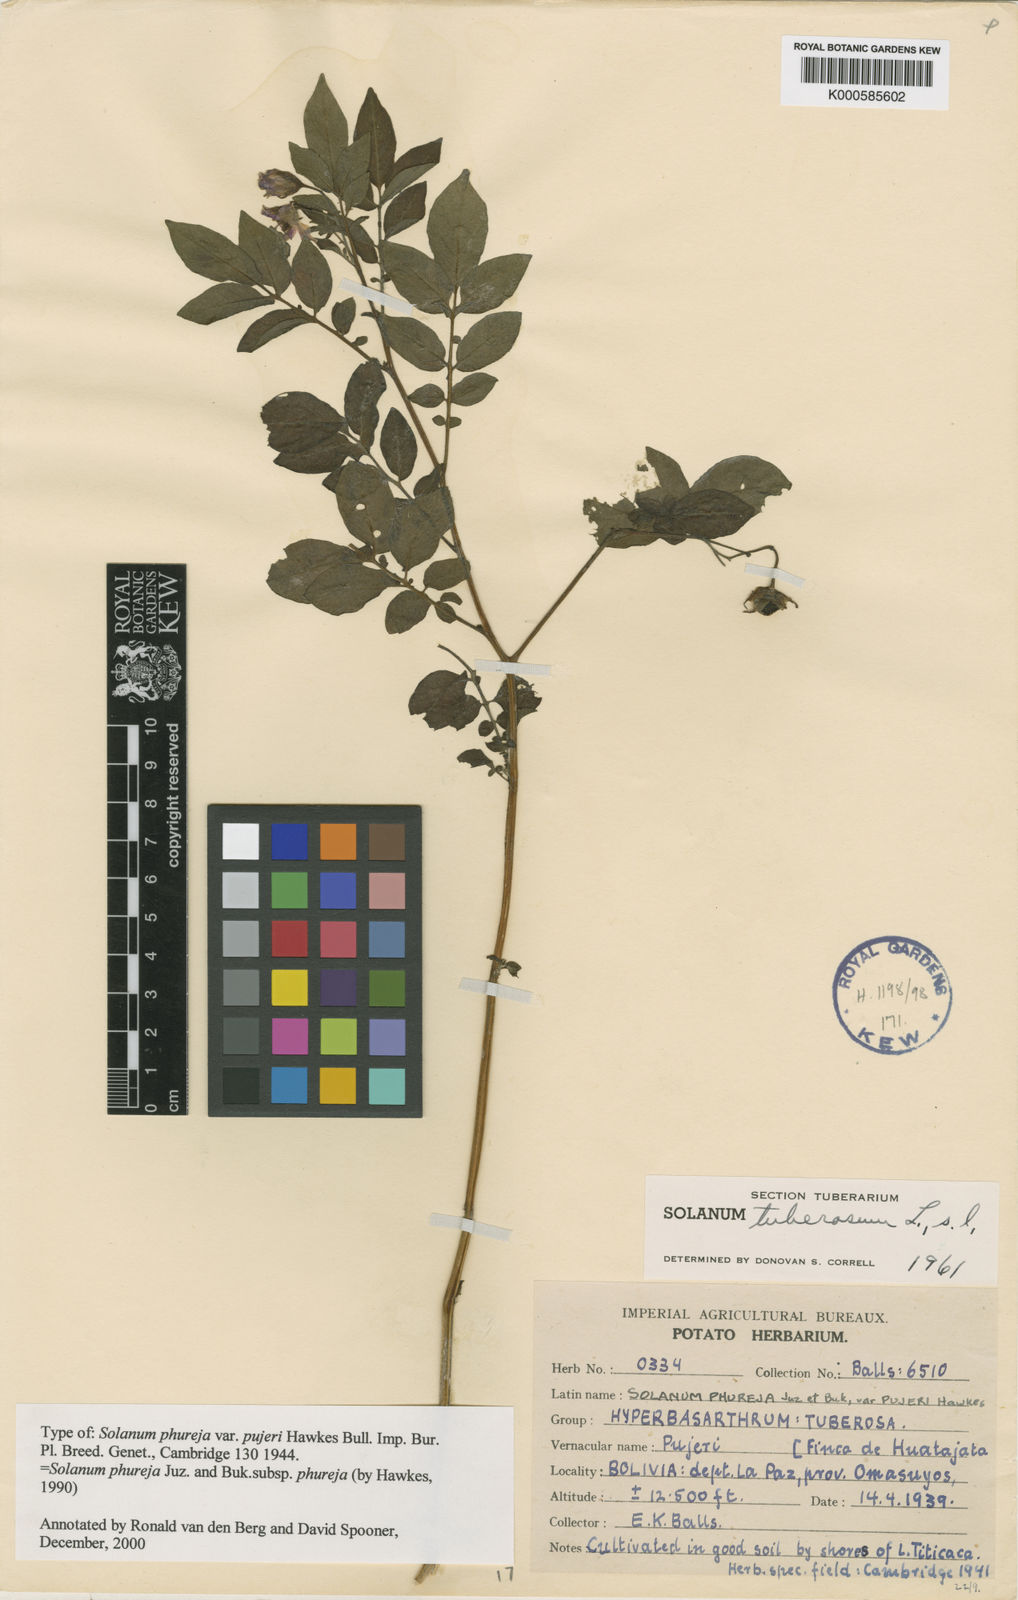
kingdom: Plantae
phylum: Tracheophyta
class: Magnoliopsida
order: Solanales
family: Solanaceae
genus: Solanum
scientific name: Solanum tuberosum
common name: Potato
